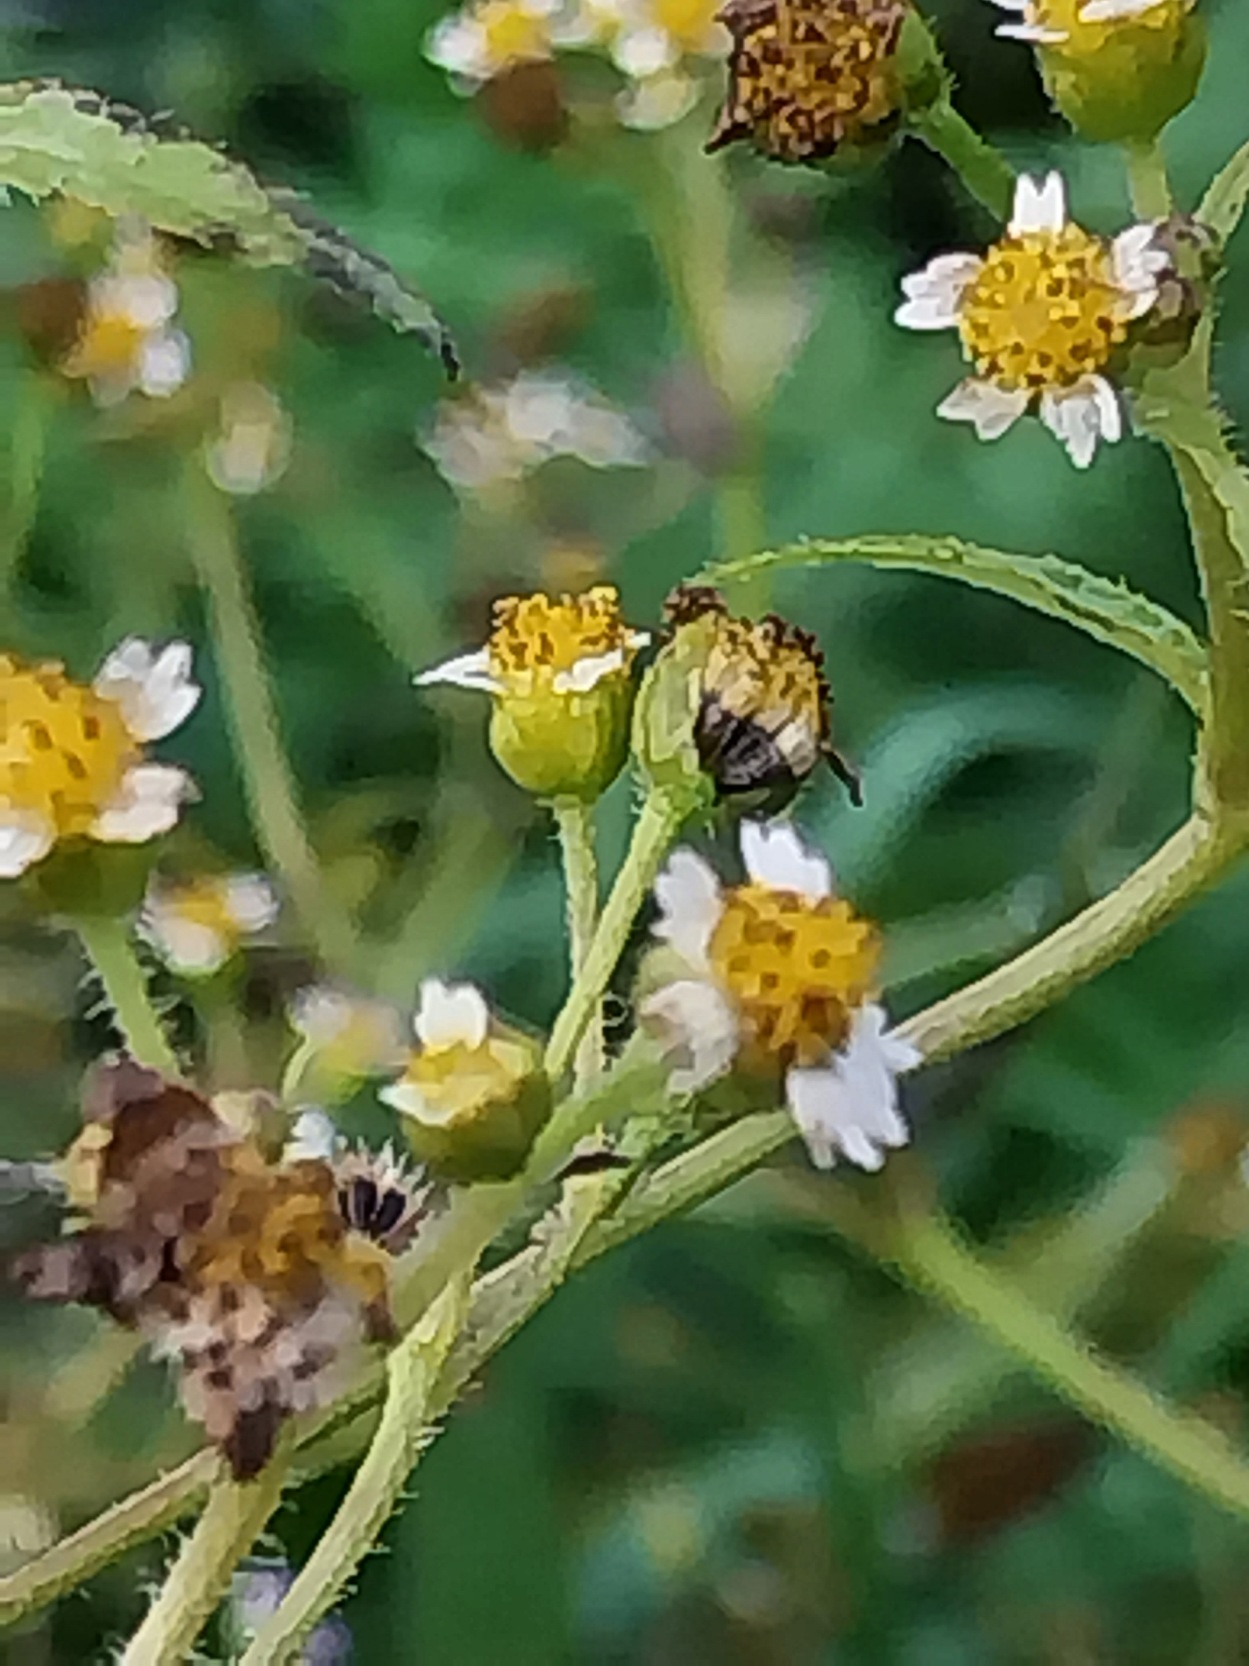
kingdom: Plantae
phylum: Tracheophyta
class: Magnoliopsida
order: Asterales
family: Asteraceae
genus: Galinsoga
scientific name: Galinsoga quadriradiata
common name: Kirtel-kortstråle
